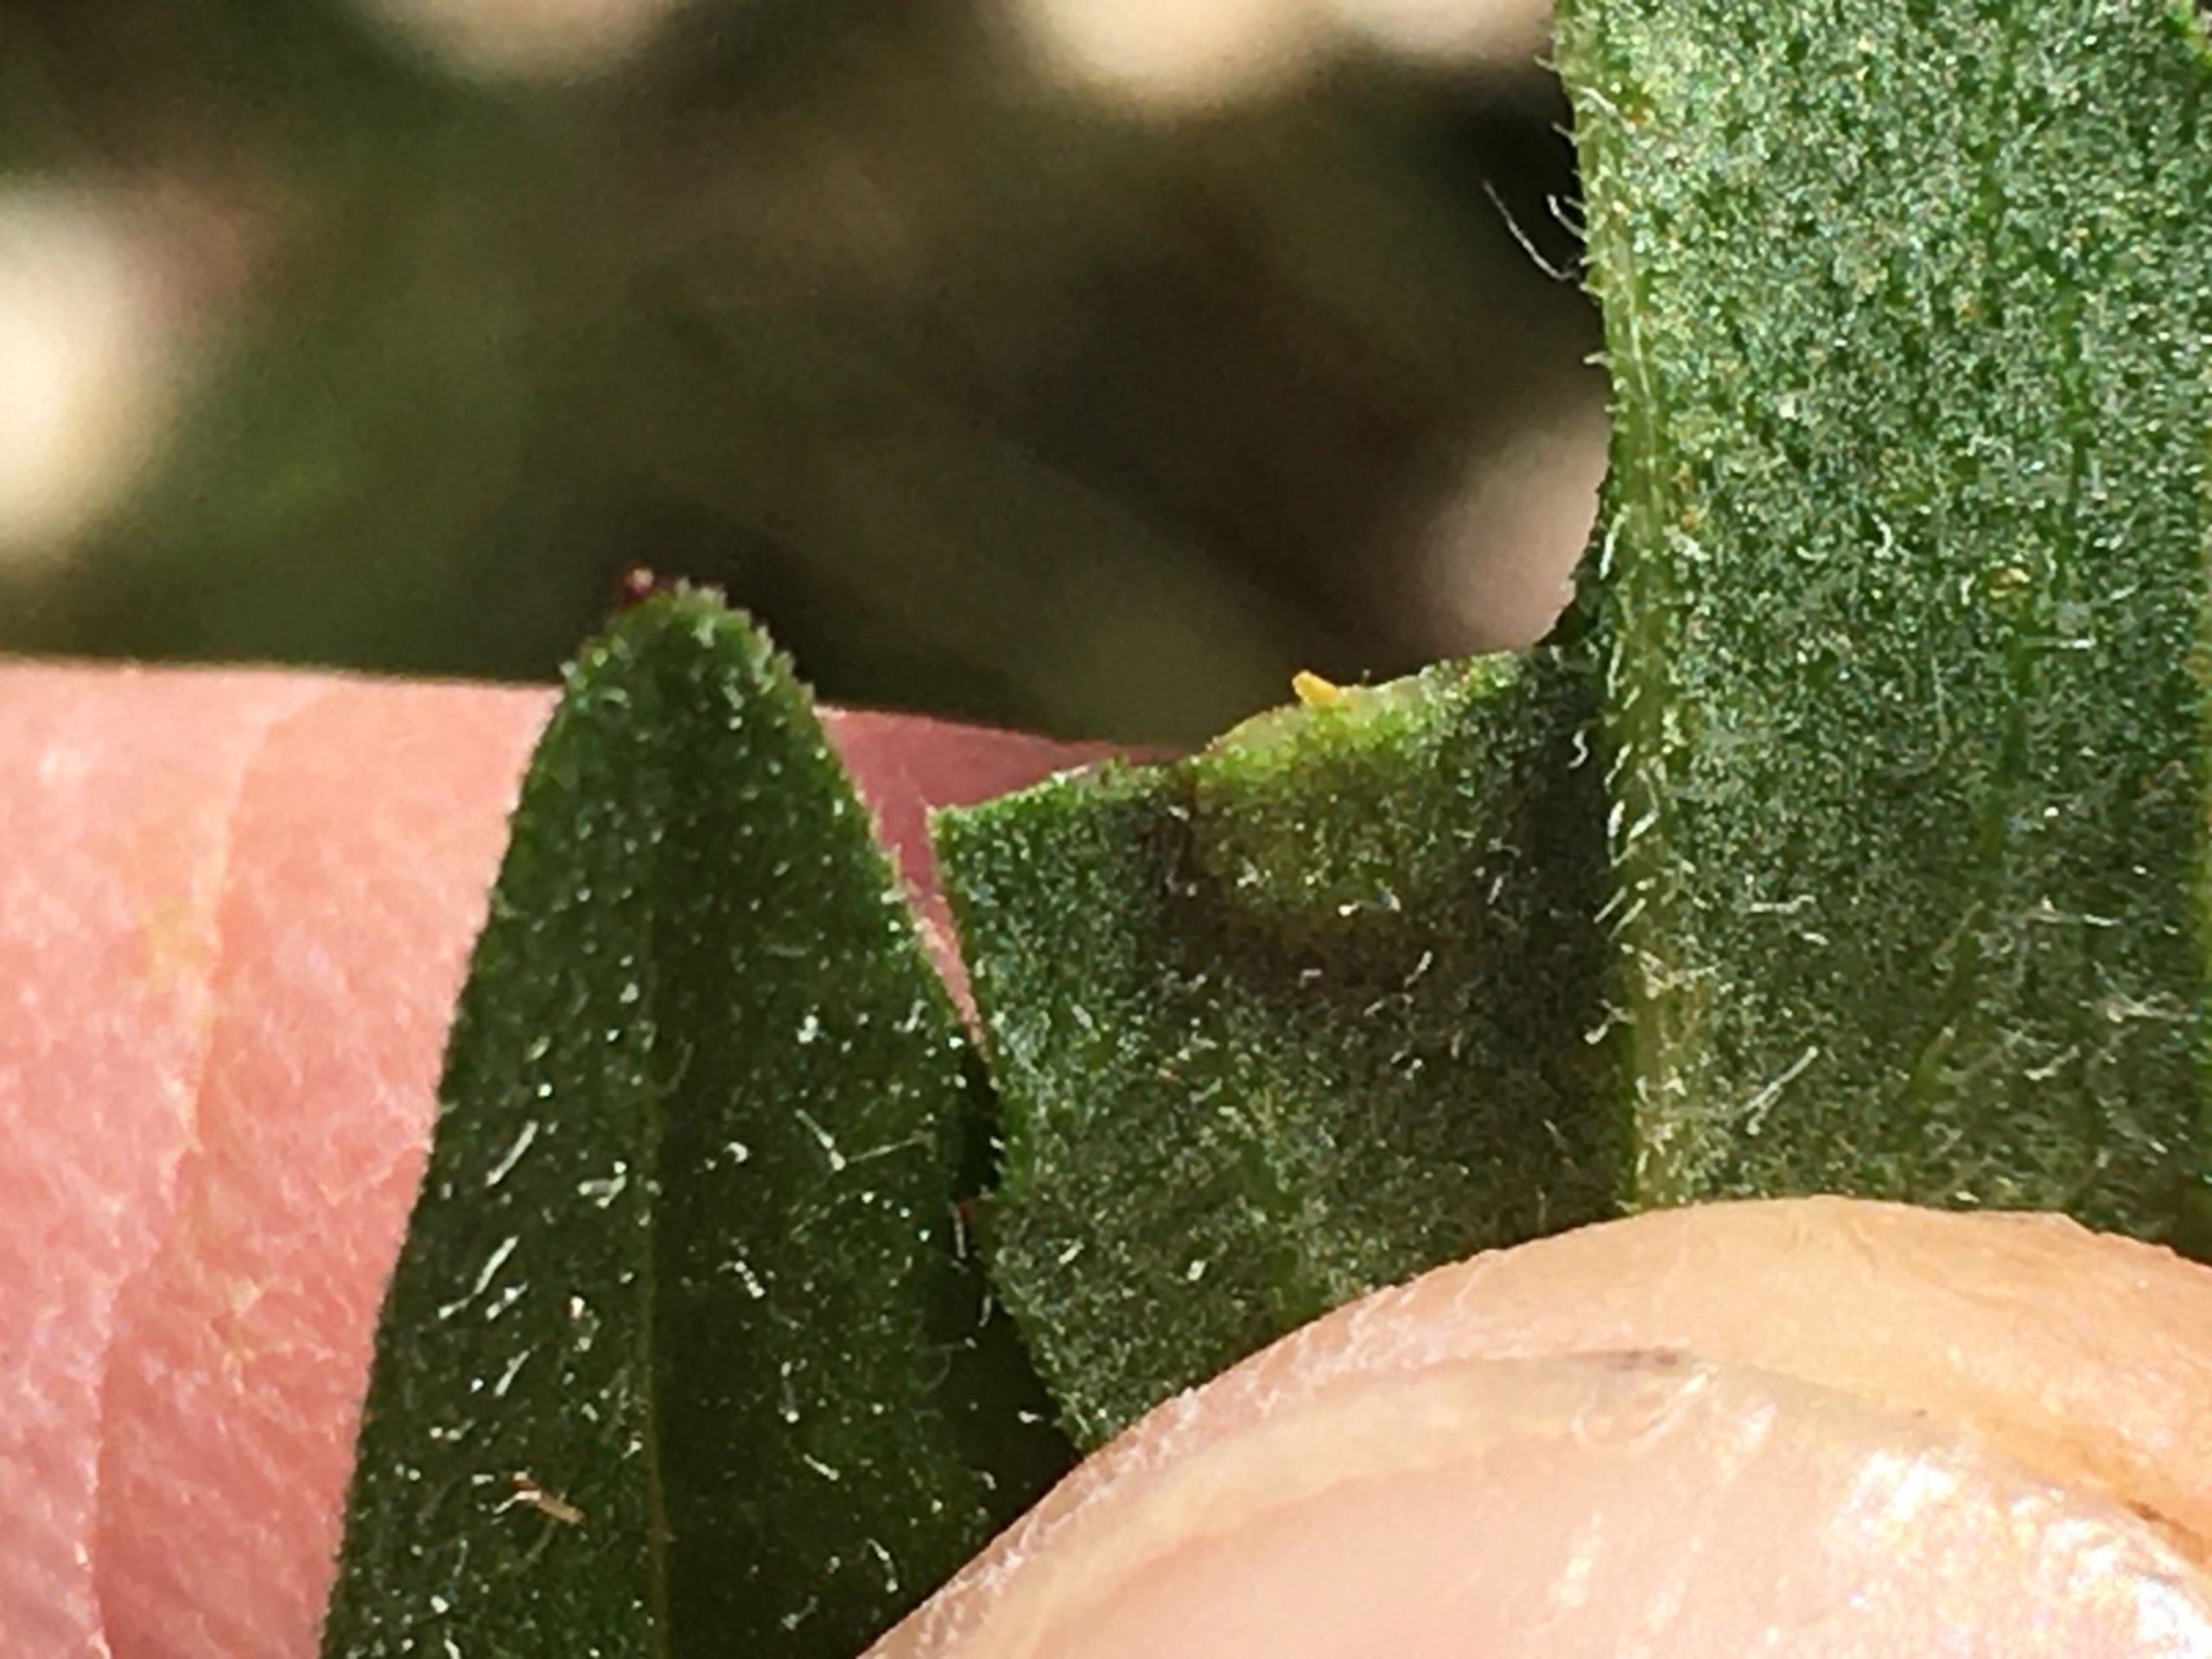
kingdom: Animalia
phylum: Arthropoda
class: Insecta
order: Diptera
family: Cecidomyiidae
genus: Loewiola
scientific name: Loewiola centaureae
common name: Knopurtblæregalmyg
